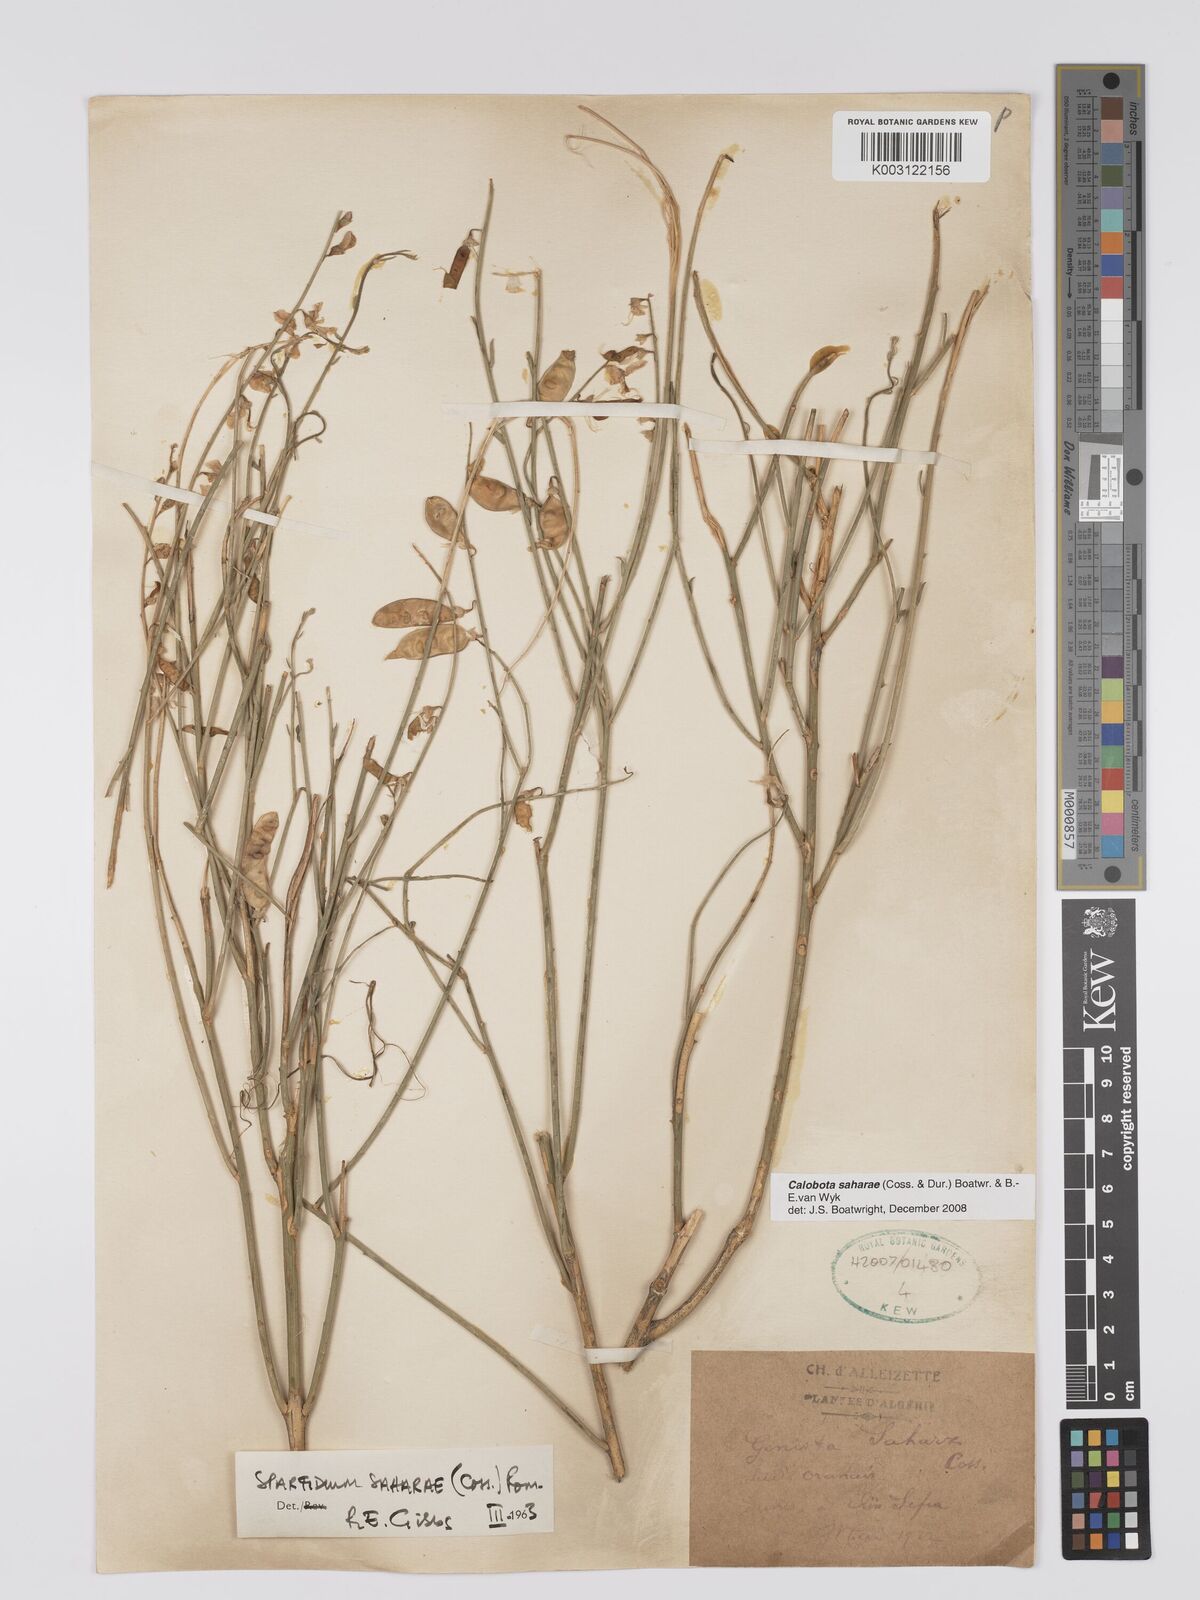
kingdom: Plantae
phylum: Tracheophyta
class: Magnoliopsida
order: Fabales
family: Fabaceae
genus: Calobota
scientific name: Calobota saharae
